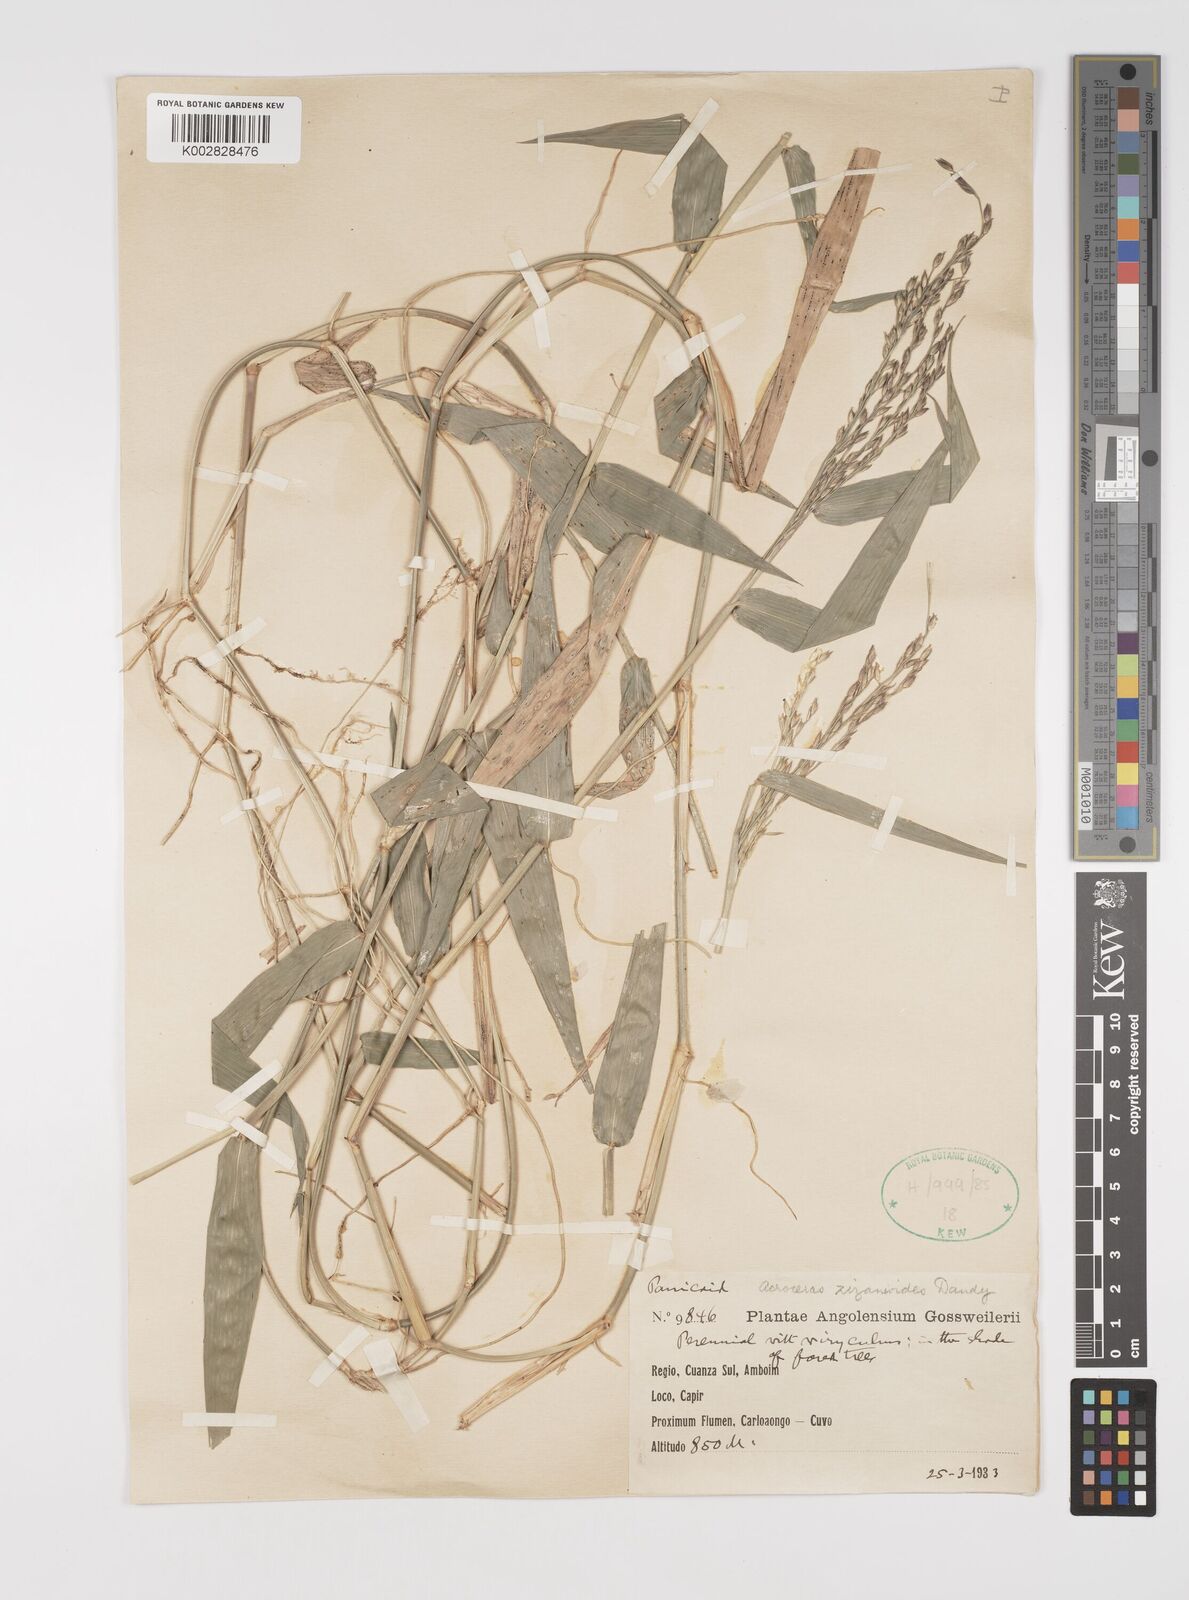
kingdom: Plantae
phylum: Tracheophyta
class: Liliopsida
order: Poales
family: Poaceae
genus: Acroceras
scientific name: Acroceras zizanioides
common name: Oat grass
